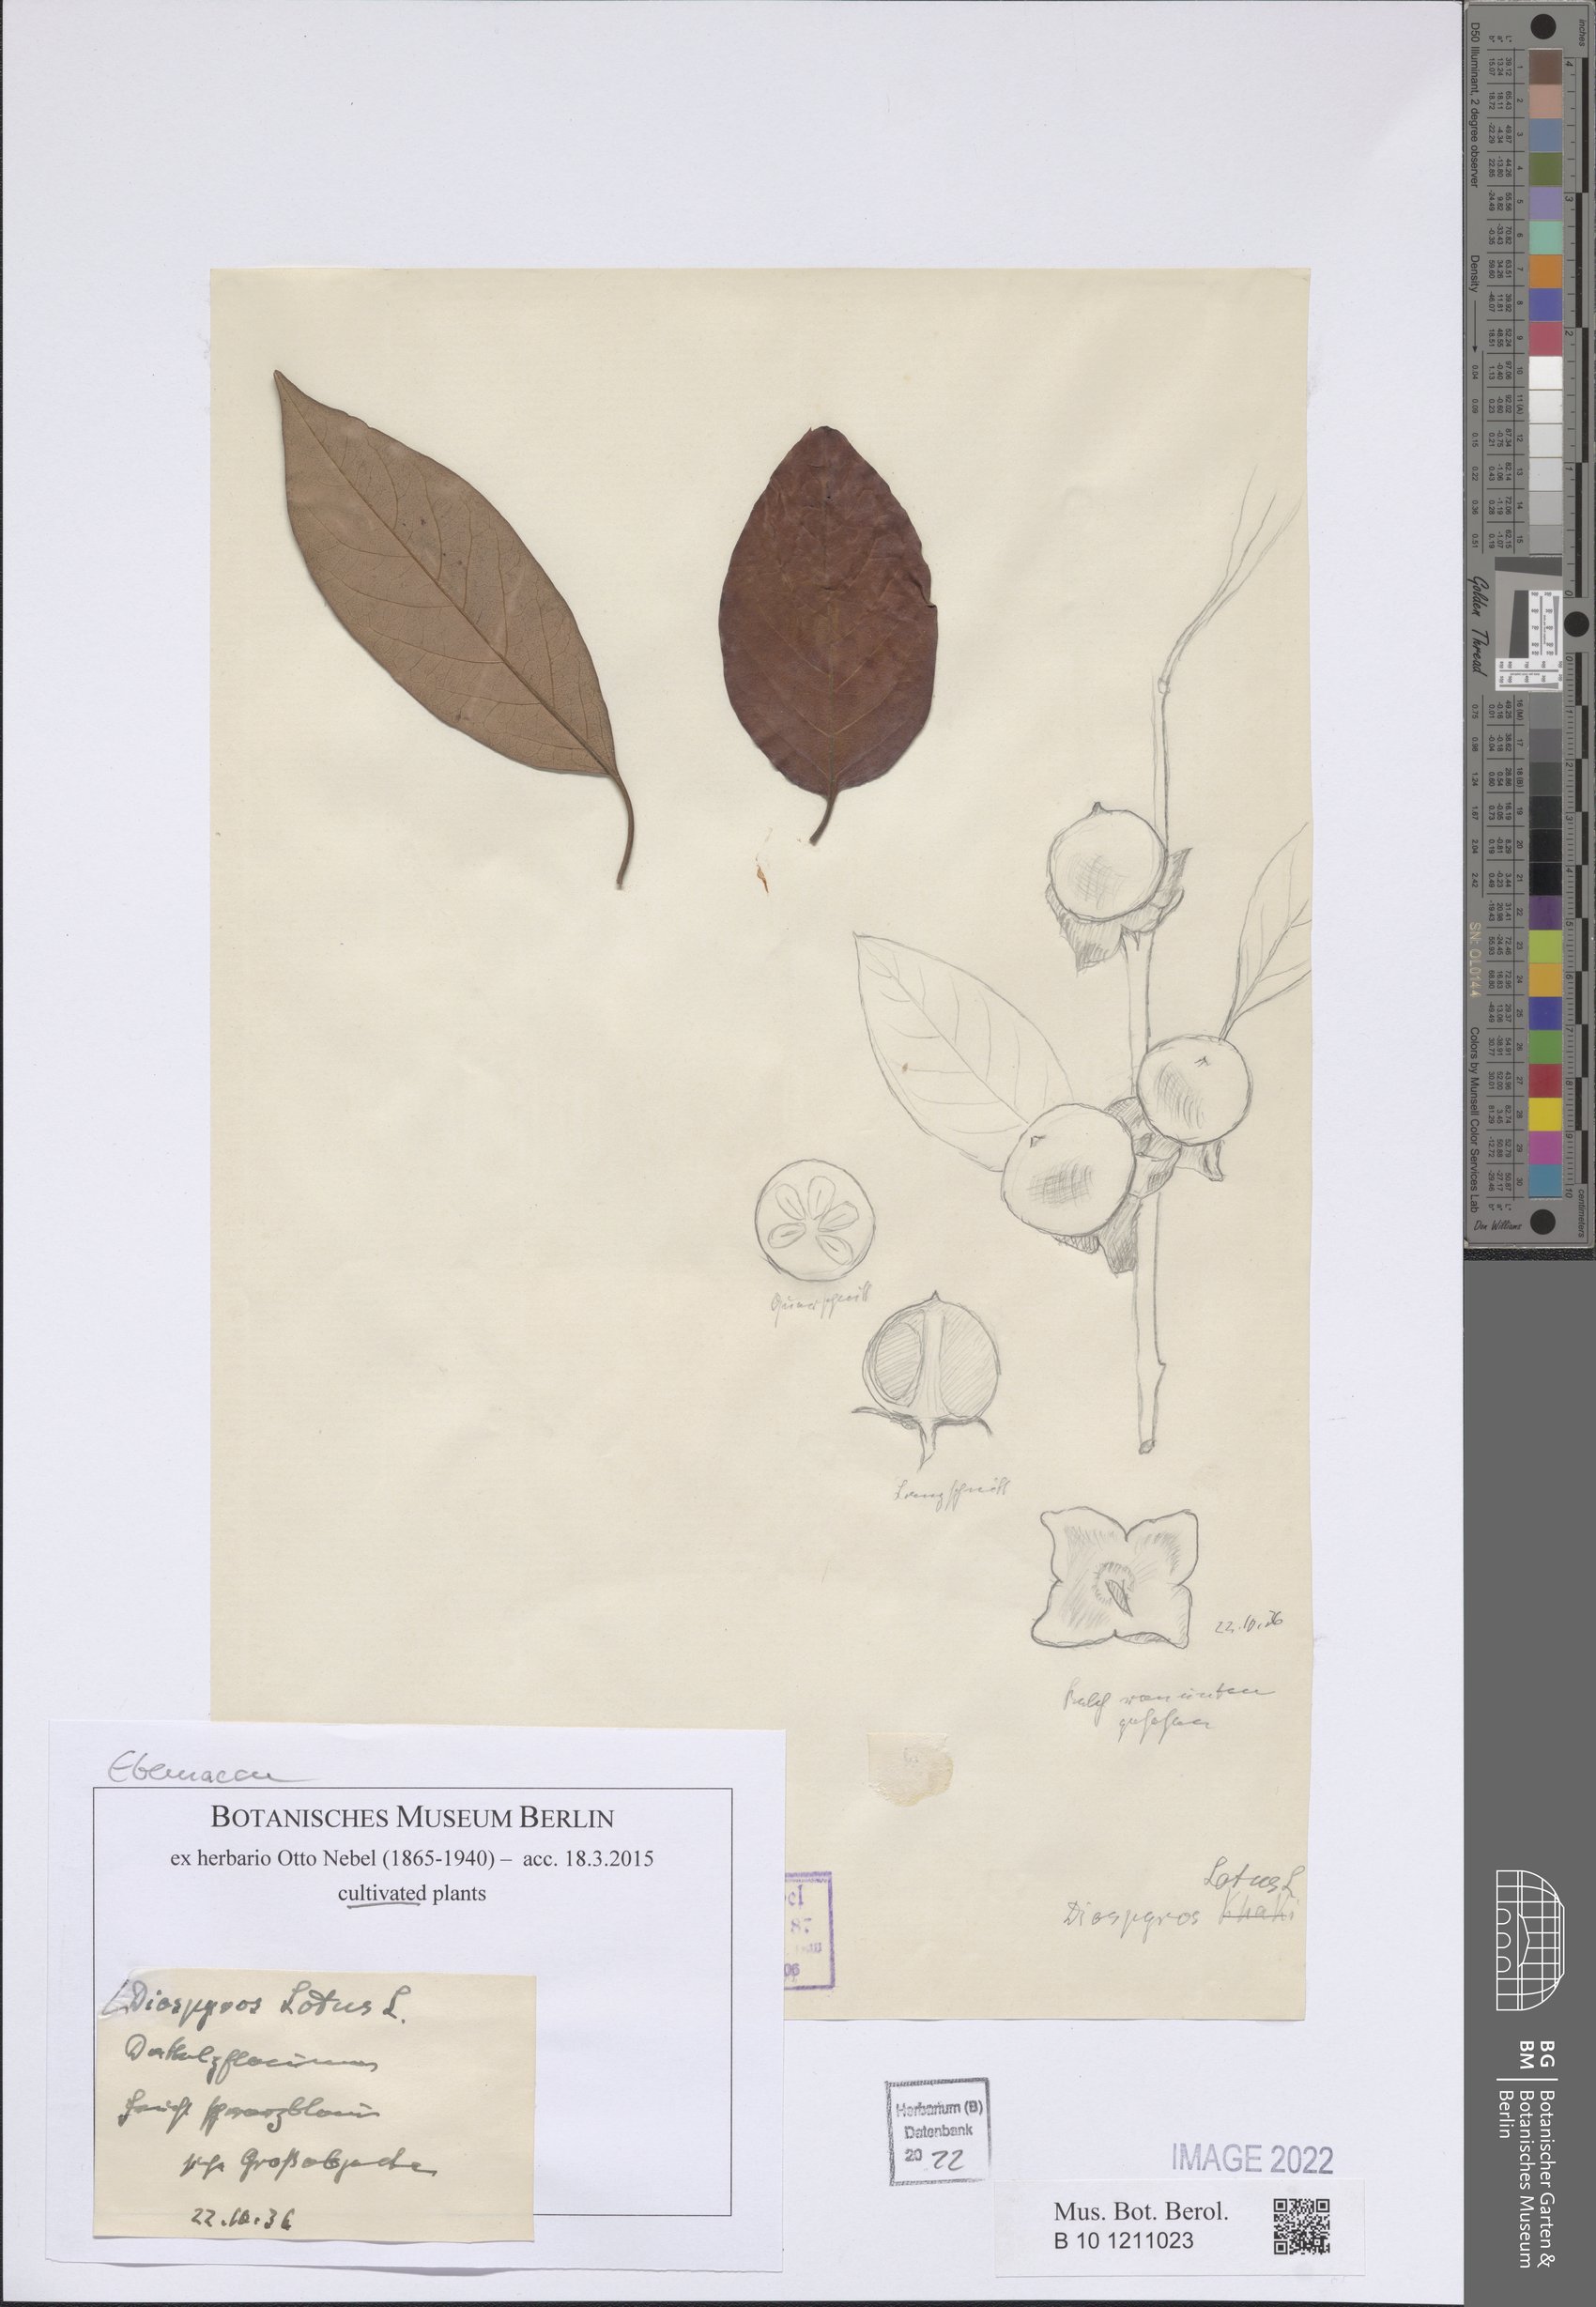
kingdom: Plantae
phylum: Tracheophyta
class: Magnoliopsida
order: Ericales
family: Ebenaceae
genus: Diospyros
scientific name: Diospyros lotus
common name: Date-plum
